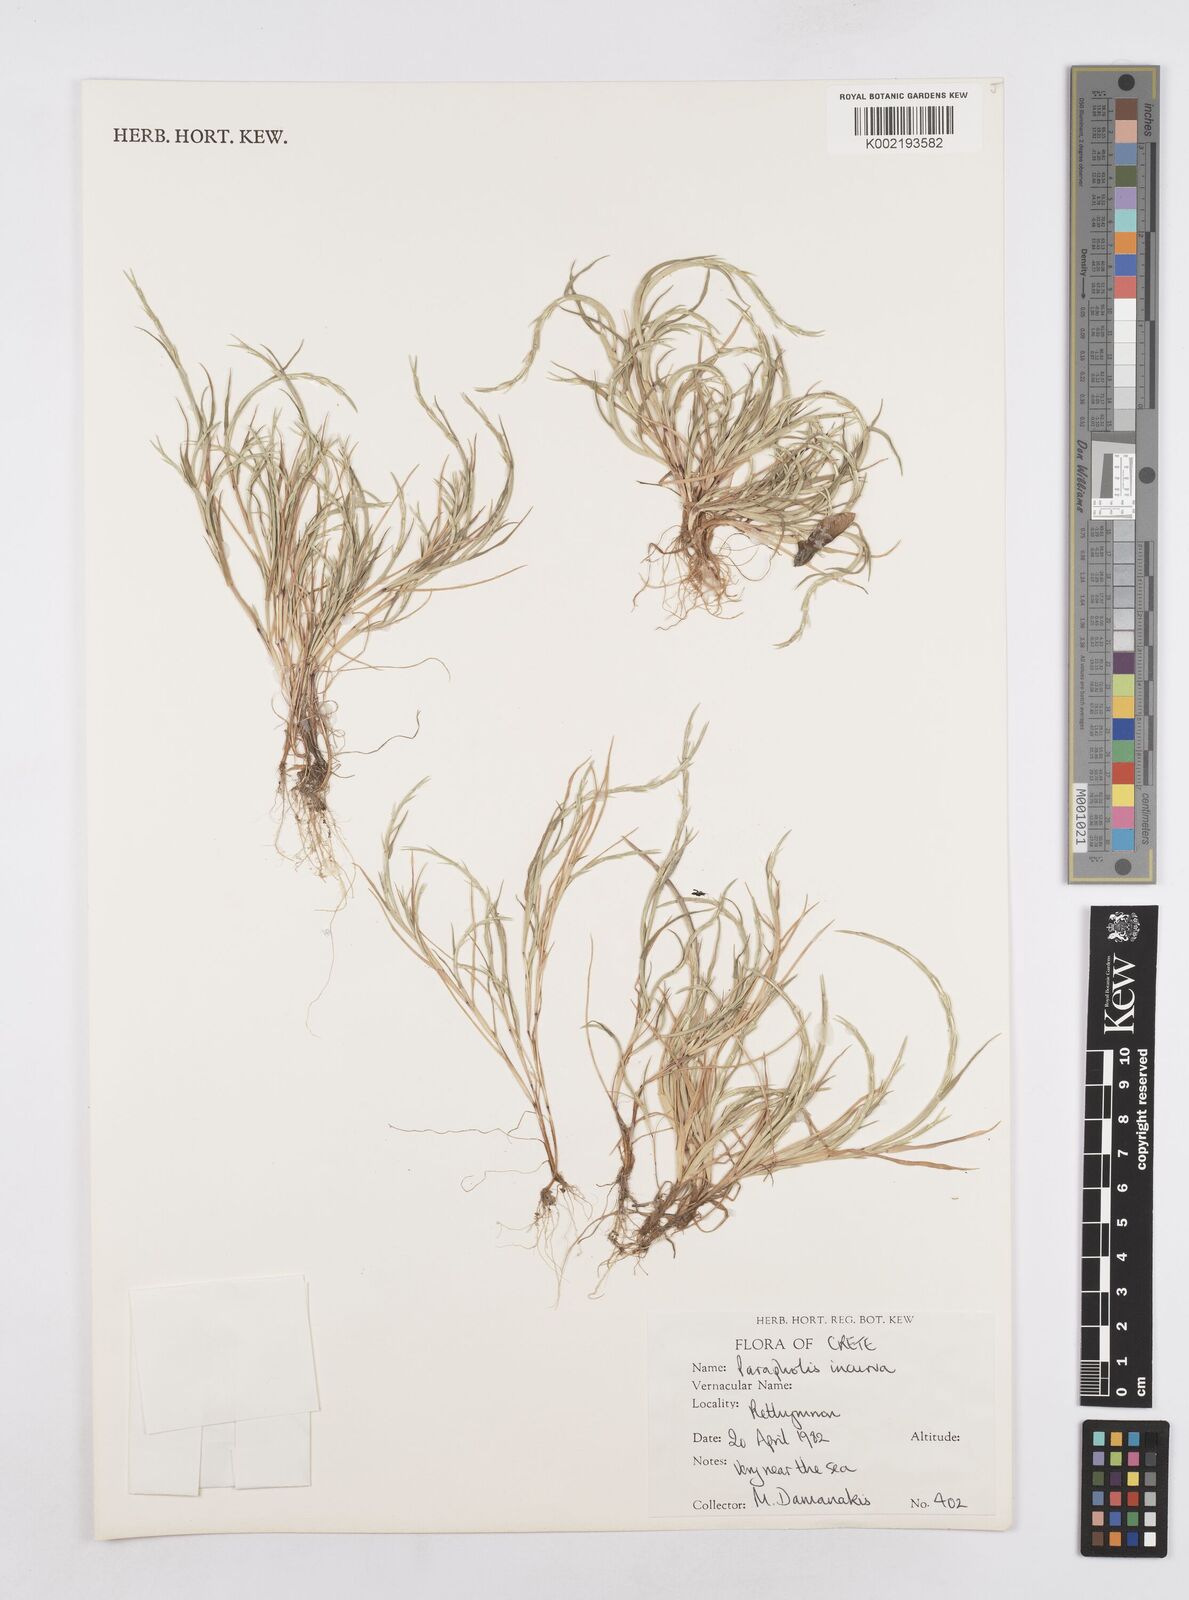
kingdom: Plantae
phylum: Tracheophyta
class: Liliopsida
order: Poales
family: Poaceae
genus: Parapholis
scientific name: Parapholis incurva
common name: Curved sicklegrass
